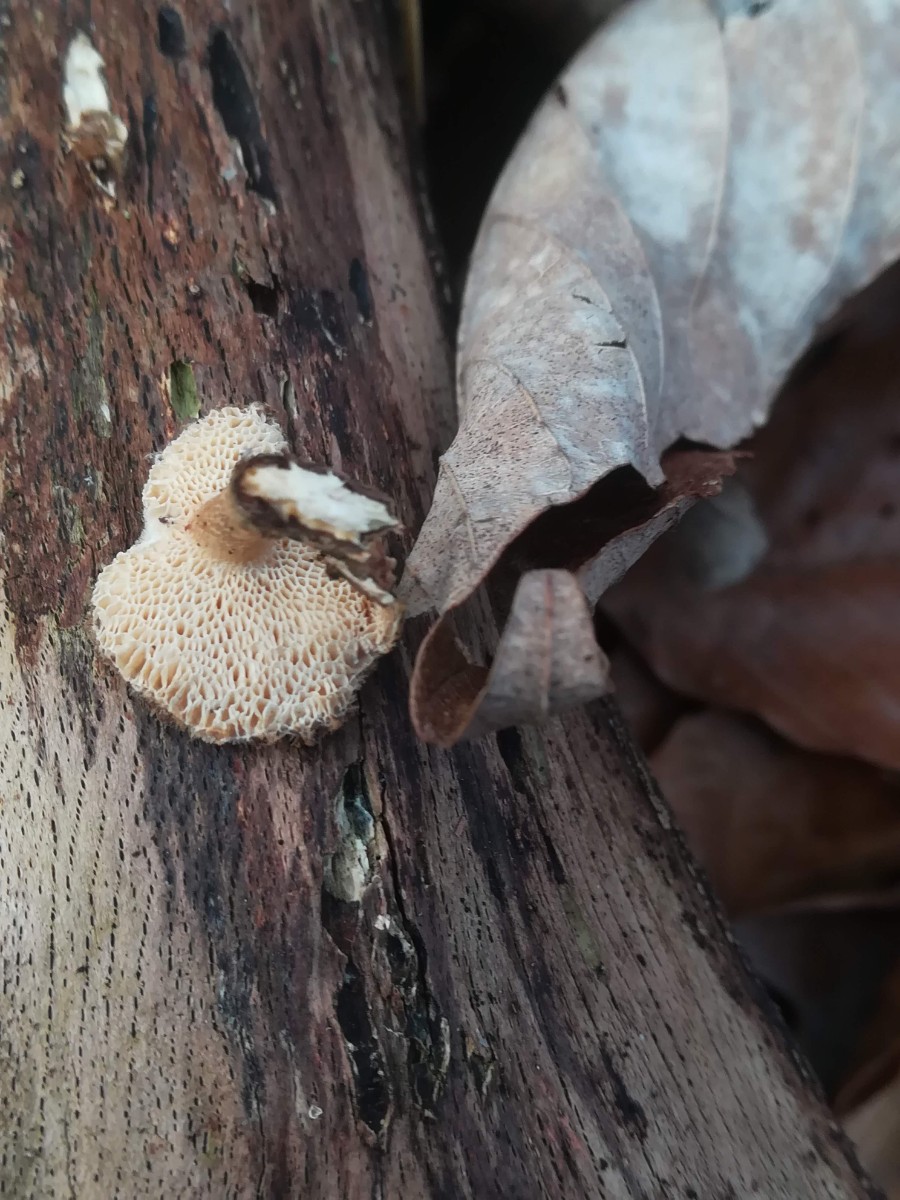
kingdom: Fungi
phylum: Basidiomycota
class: Agaricomycetes
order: Polyporales
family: Polyporaceae
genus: Lentinus
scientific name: Lentinus brumalis
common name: vinter-stilkporesvamp
